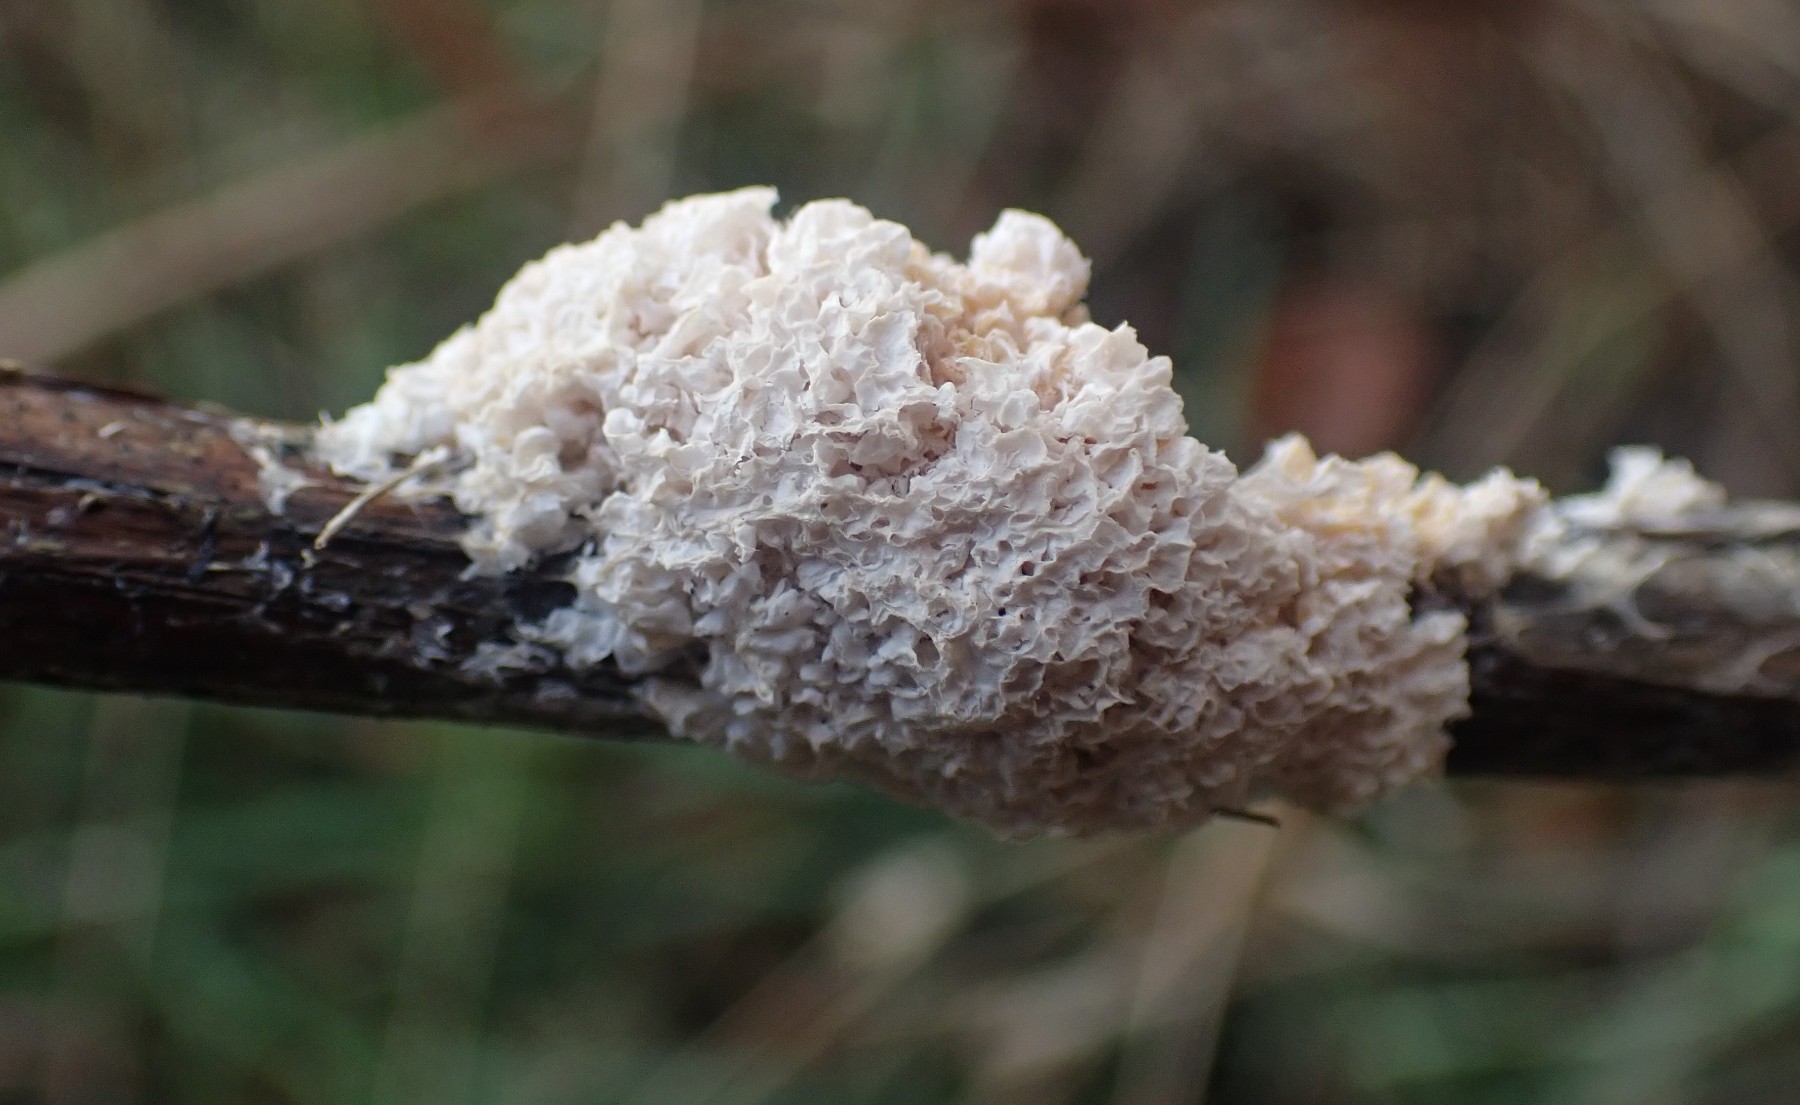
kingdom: Protozoa
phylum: Mycetozoa
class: Myxomycetes
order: Physarales
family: Physaraceae
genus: Didymium
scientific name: Didymium
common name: urteskum
